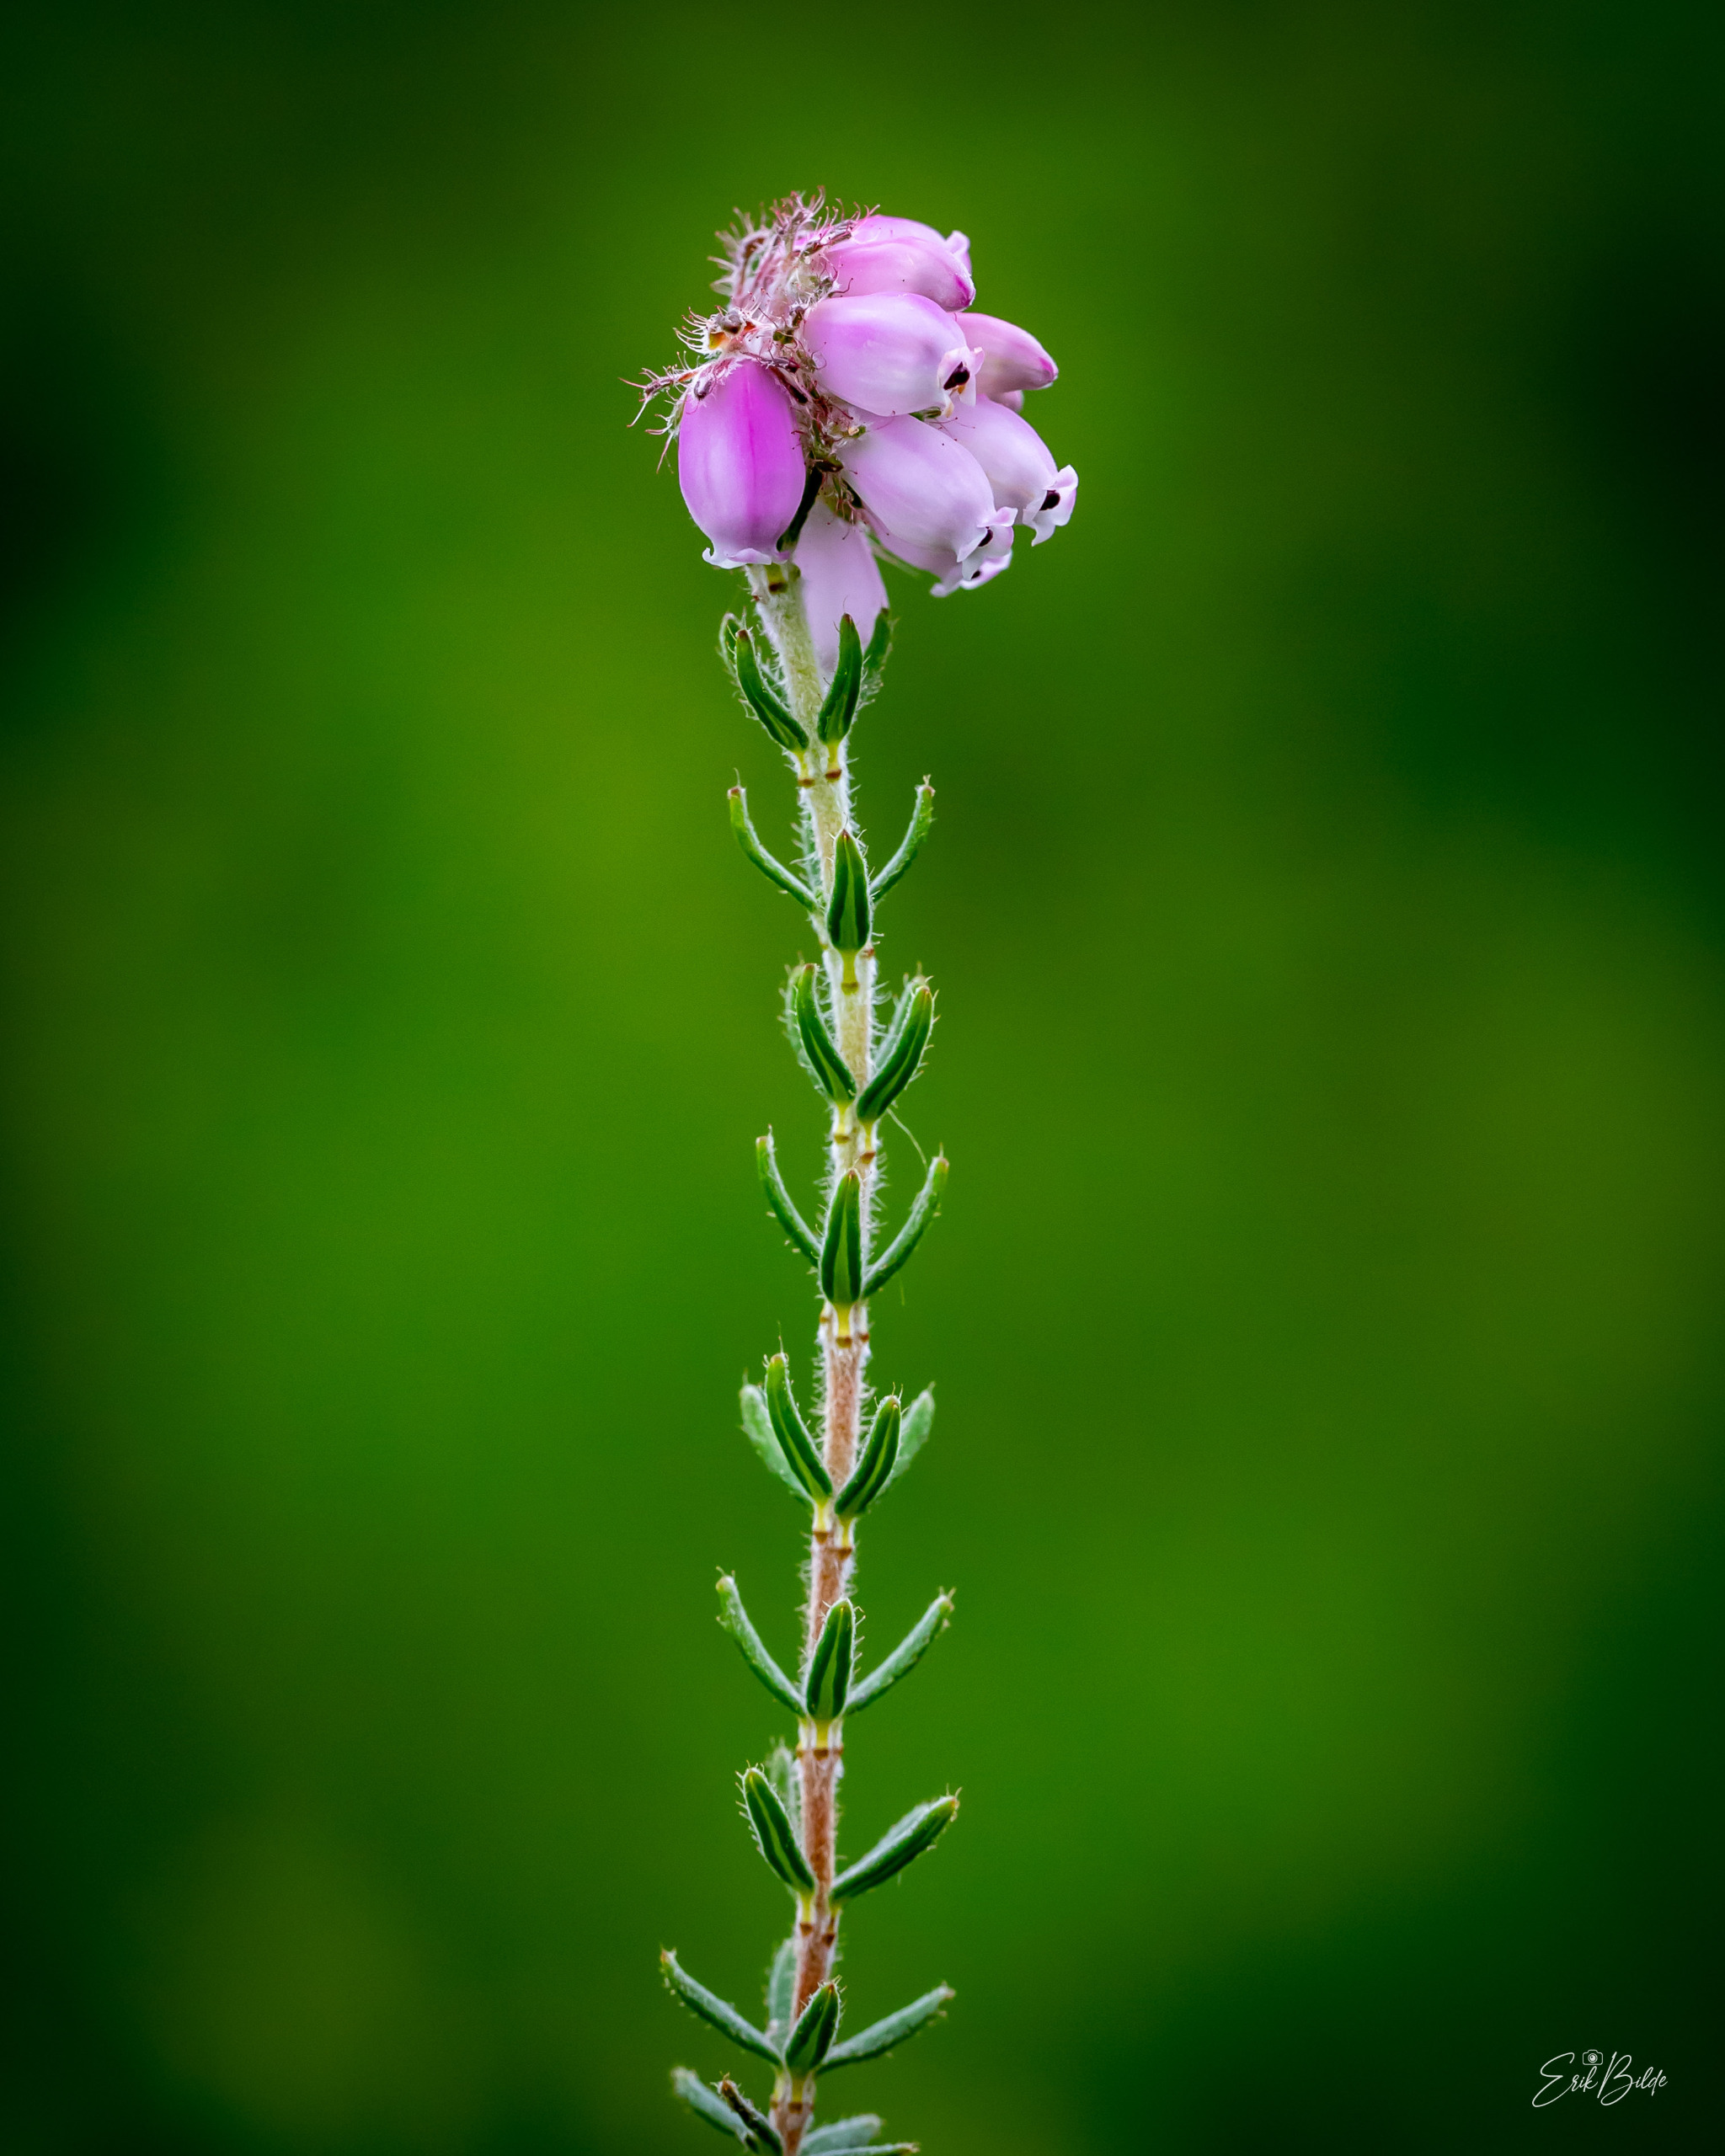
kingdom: Plantae
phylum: Tracheophyta
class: Magnoliopsida
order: Ericales
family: Ericaceae
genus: Erica
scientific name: Erica tetralix
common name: Klokkelyng
